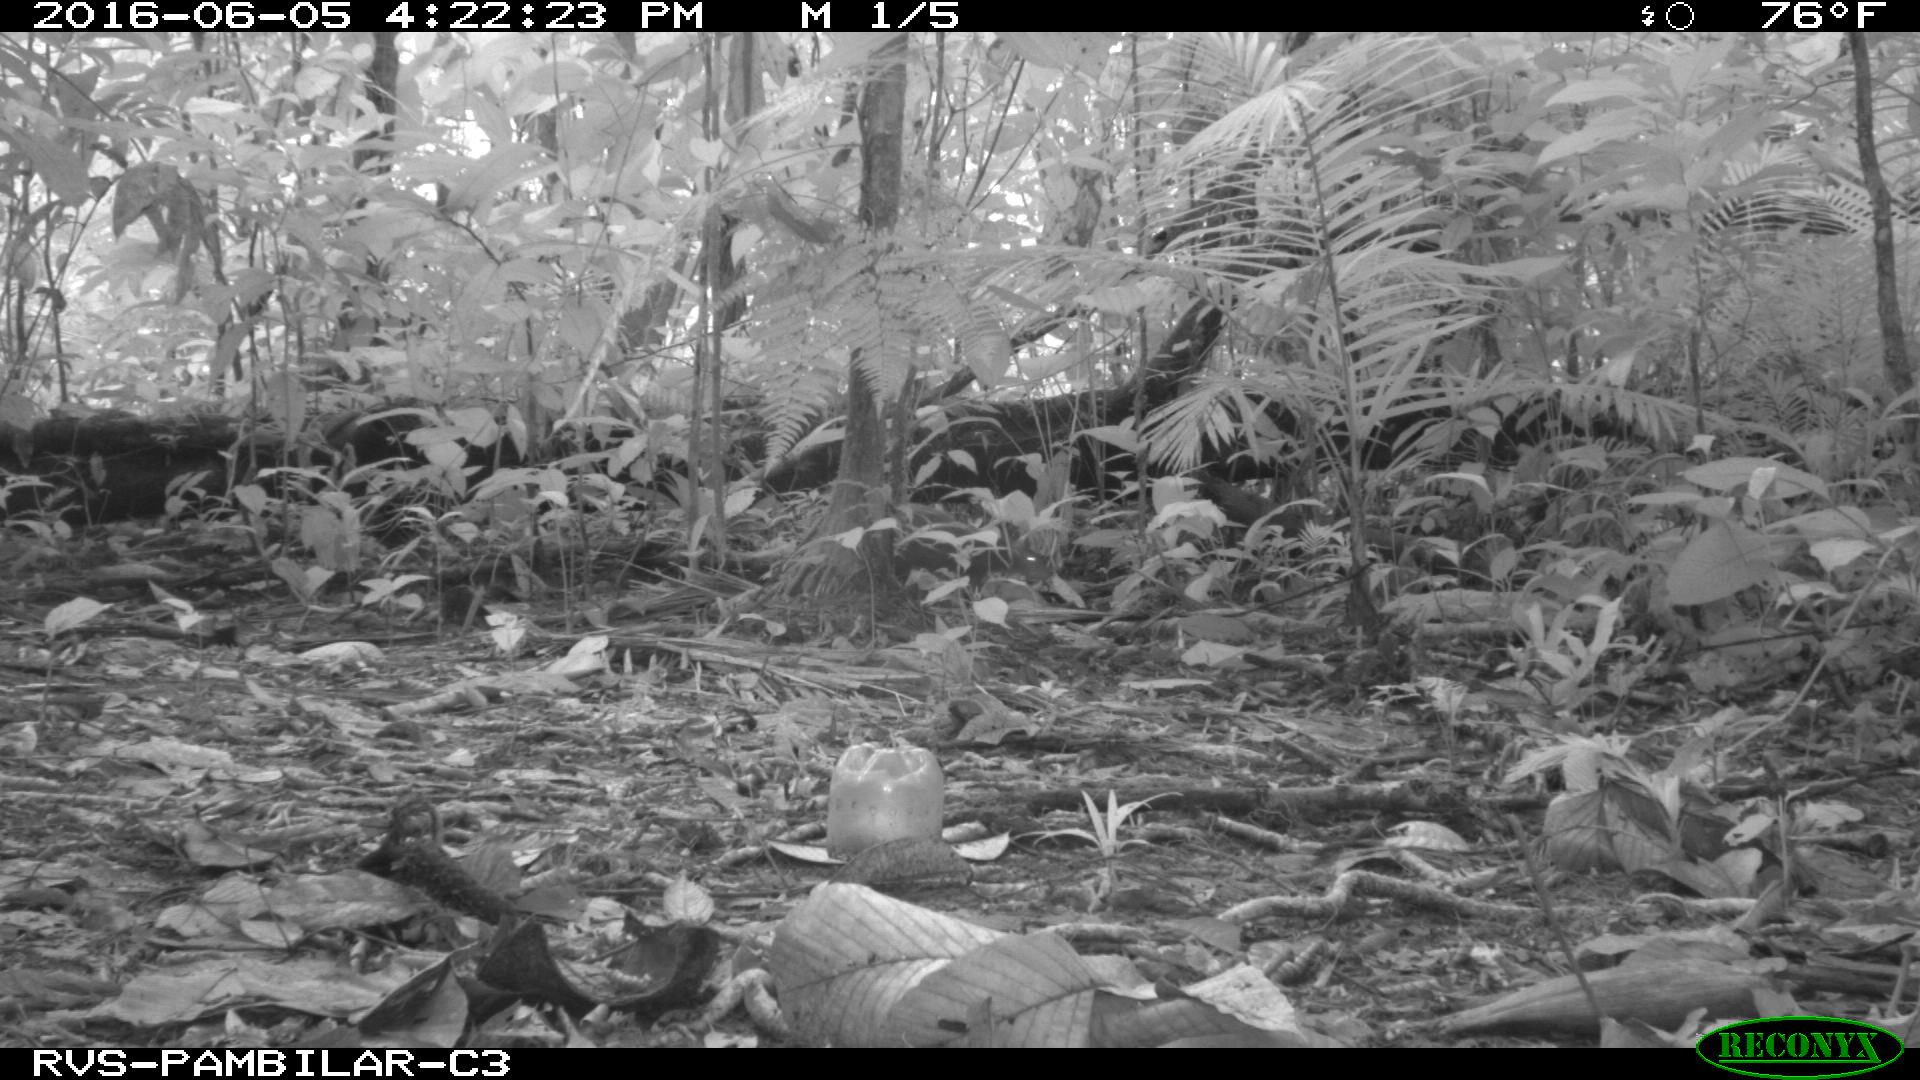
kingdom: Animalia
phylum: Chordata
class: Mammalia
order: Rodentia
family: Dasyproctidae
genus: Dasyprocta
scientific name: Dasyprocta punctata
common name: Central american agouti
